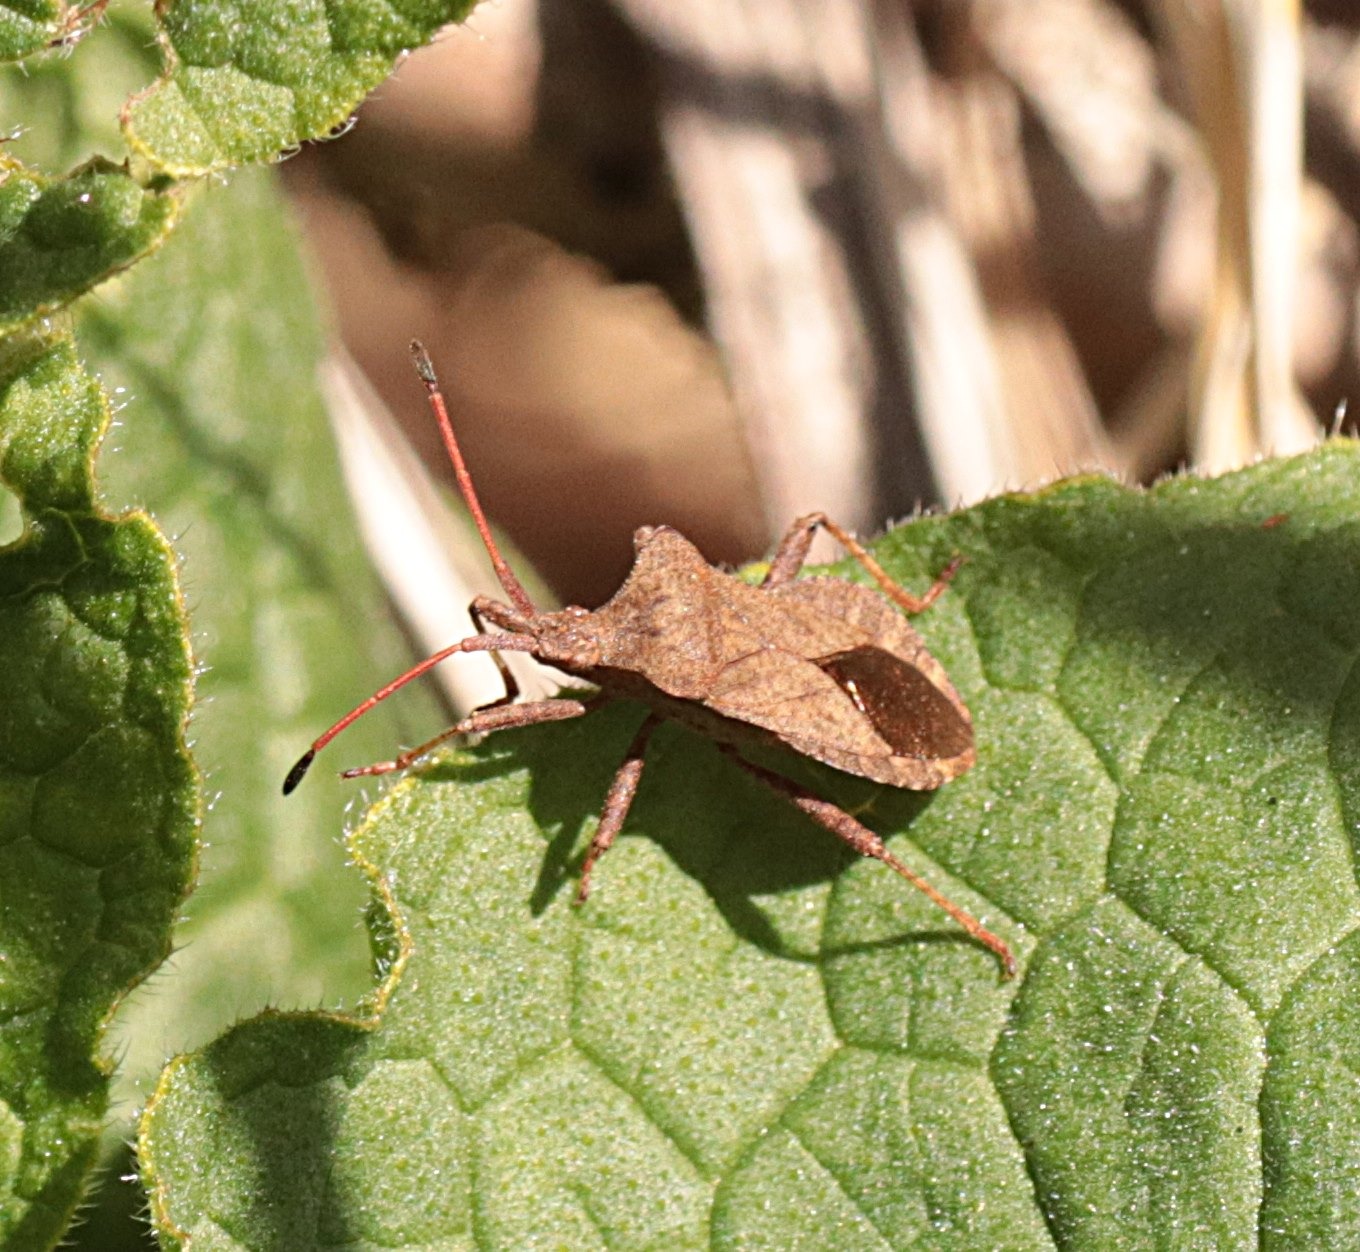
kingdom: Animalia
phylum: Arthropoda
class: Insecta
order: Hemiptera
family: Coreidae
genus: Coreus
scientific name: Coreus marginatus
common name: Skræppetæge
